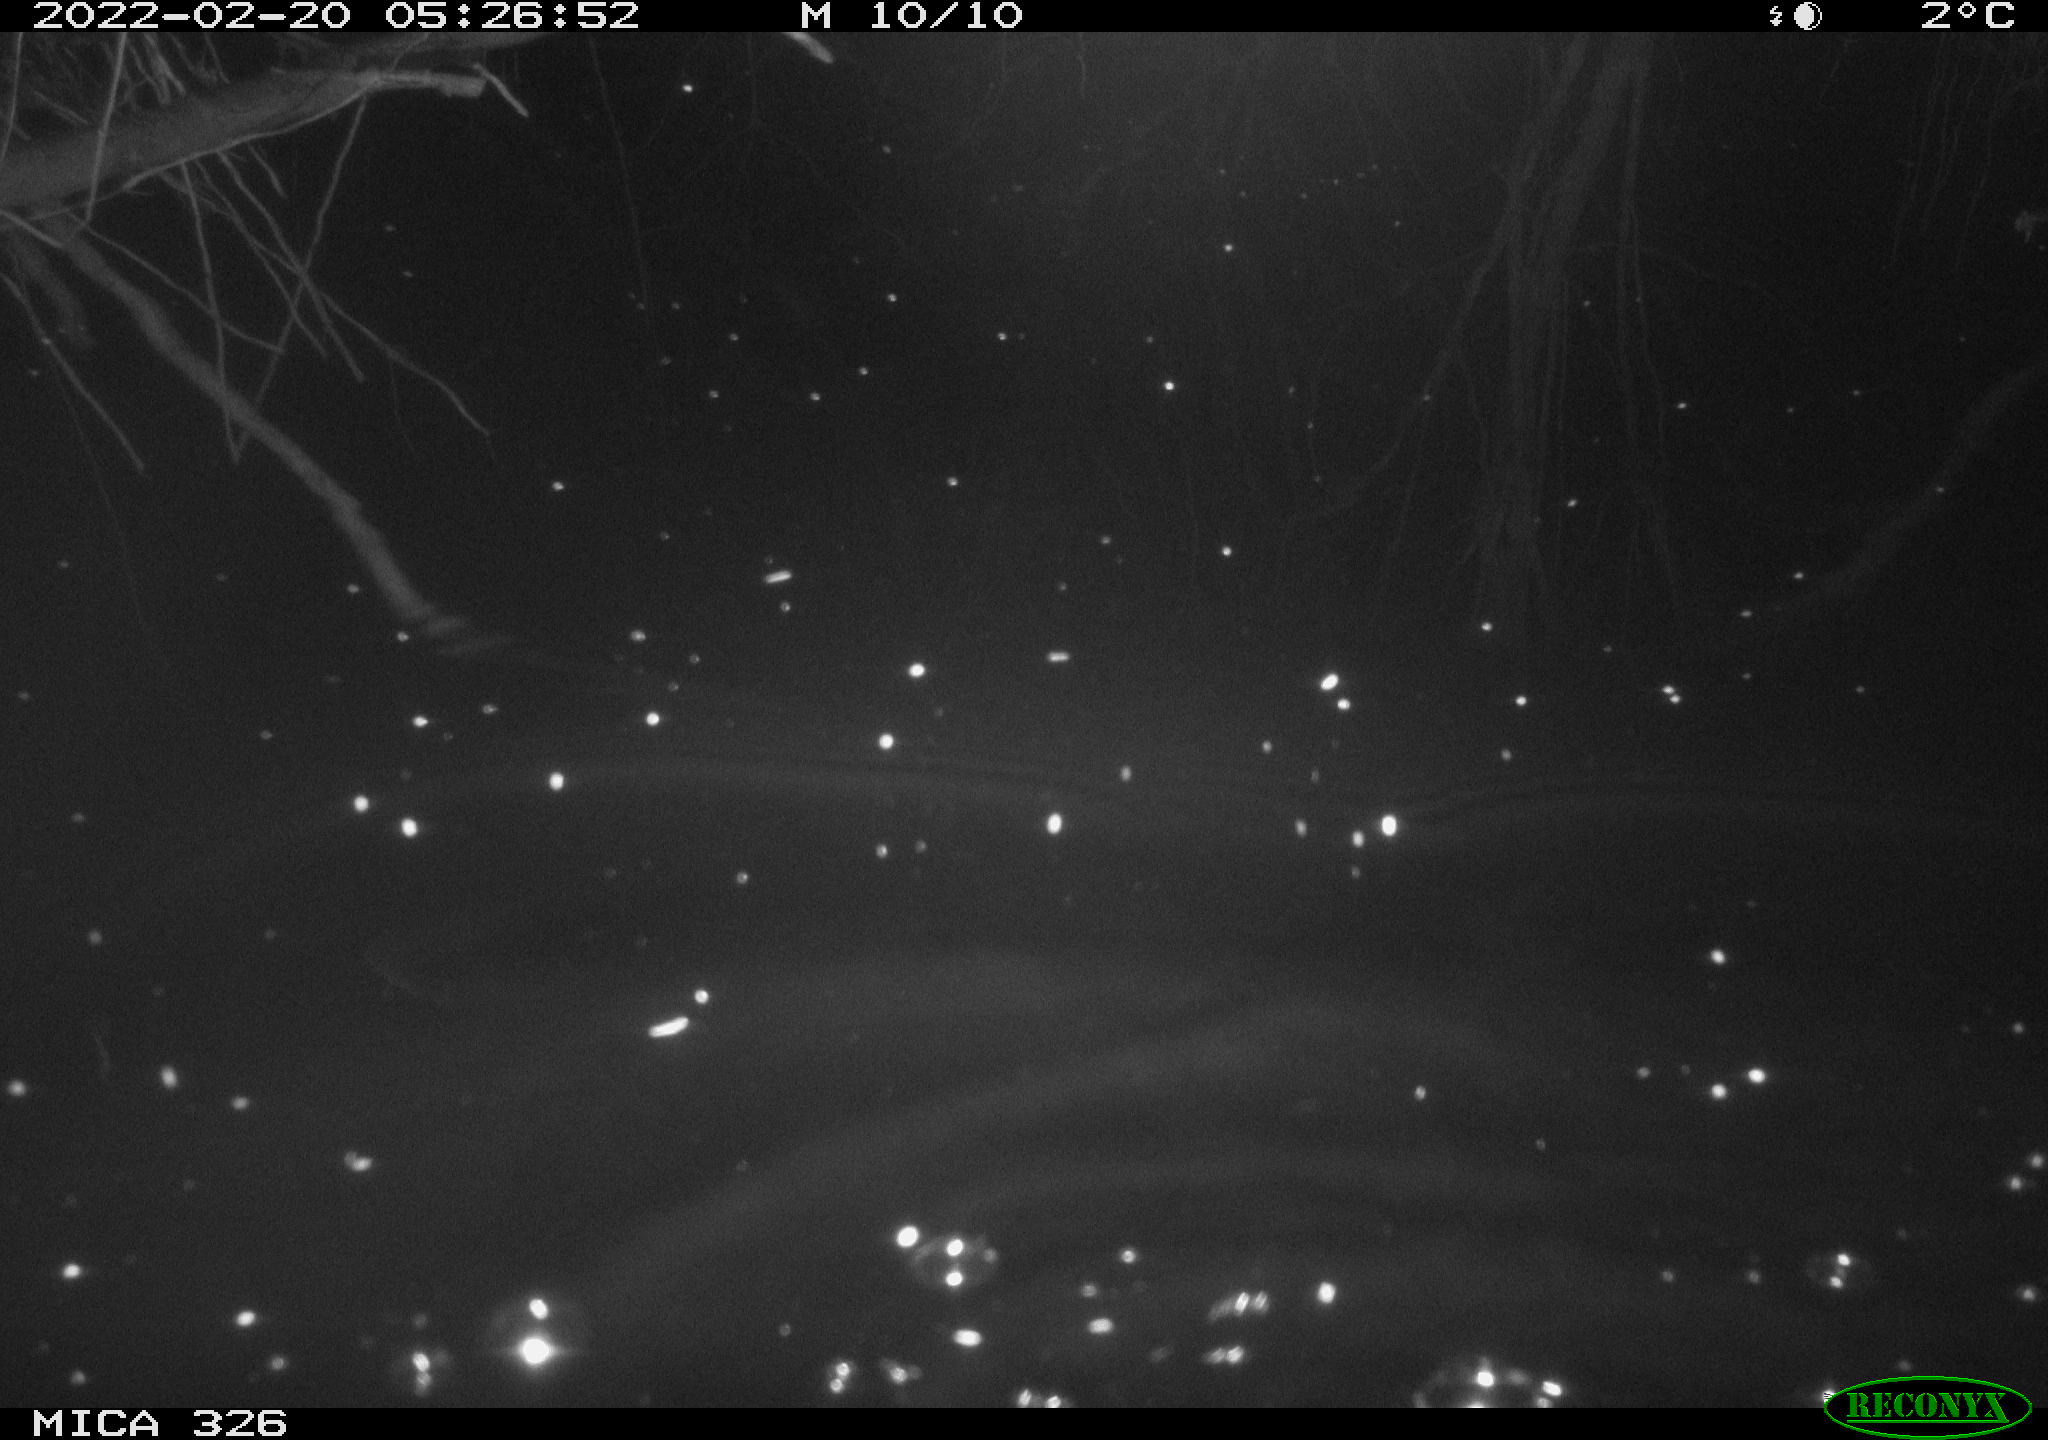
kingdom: Animalia
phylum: Chordata
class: Mammalia
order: Rodentia
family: Cricetidae
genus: Ondatra
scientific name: Ondatra zibethicus
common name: Muskrat
